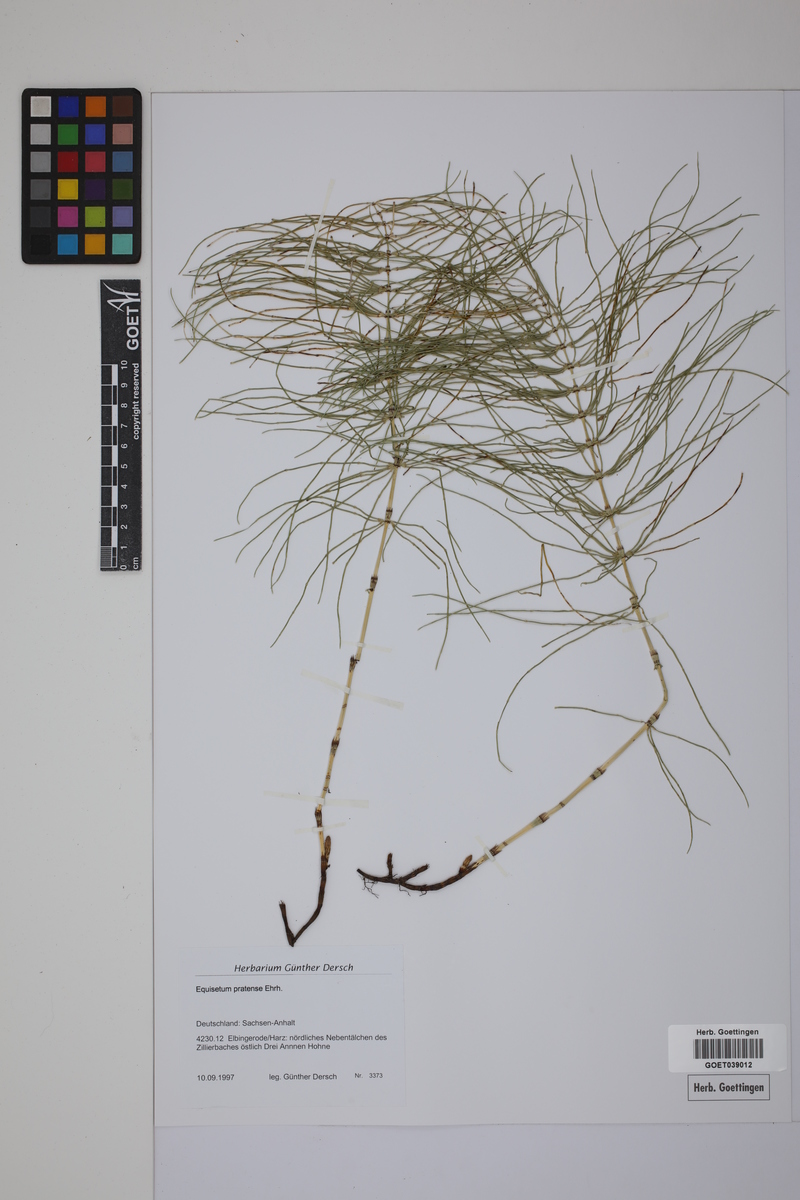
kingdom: Plantae
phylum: Tracheophyta
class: Polypodiopsida
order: Equisetales
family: Equisetaceae
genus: Equisetum
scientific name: Equisetum pratense
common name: Meadow horsetail
